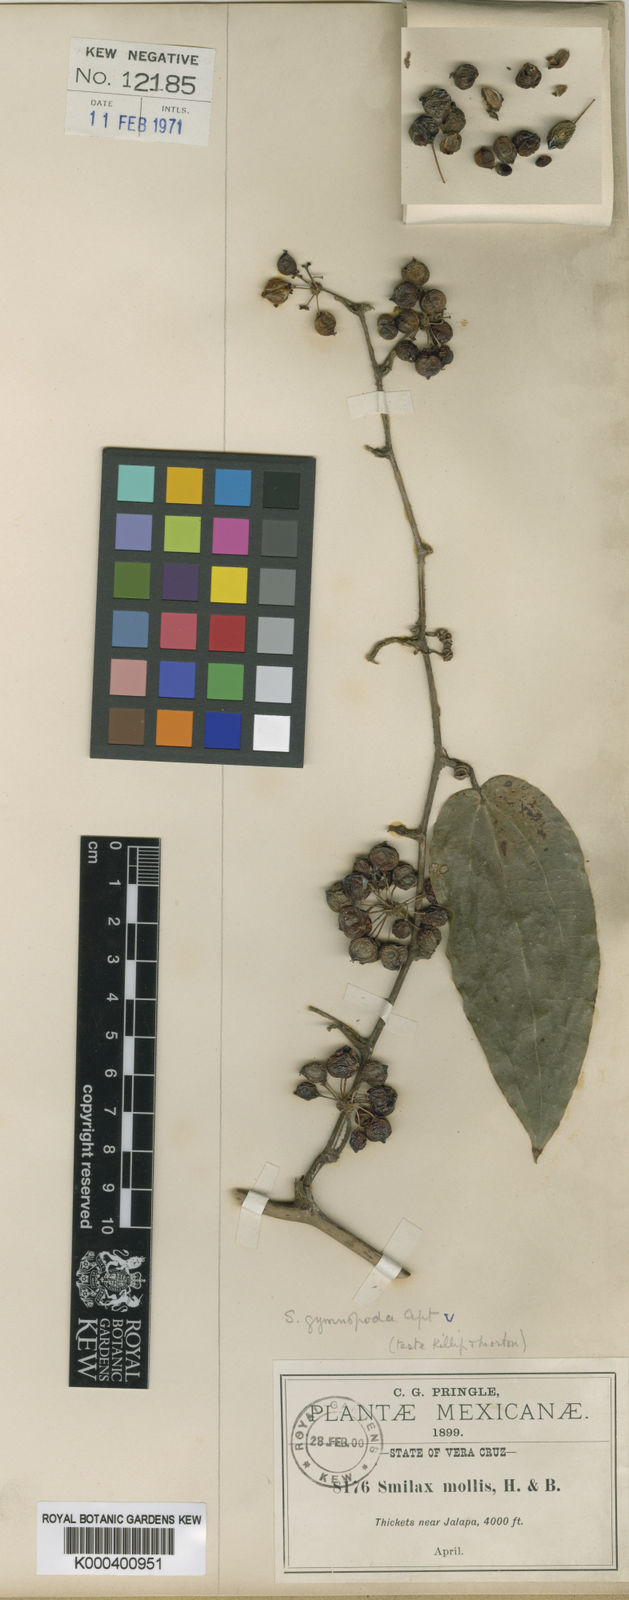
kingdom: Plantae
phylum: Tracheophyta
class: Liliopsida
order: Liliales
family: Smilacaceae
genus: Smilax
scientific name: Smilax mollis
